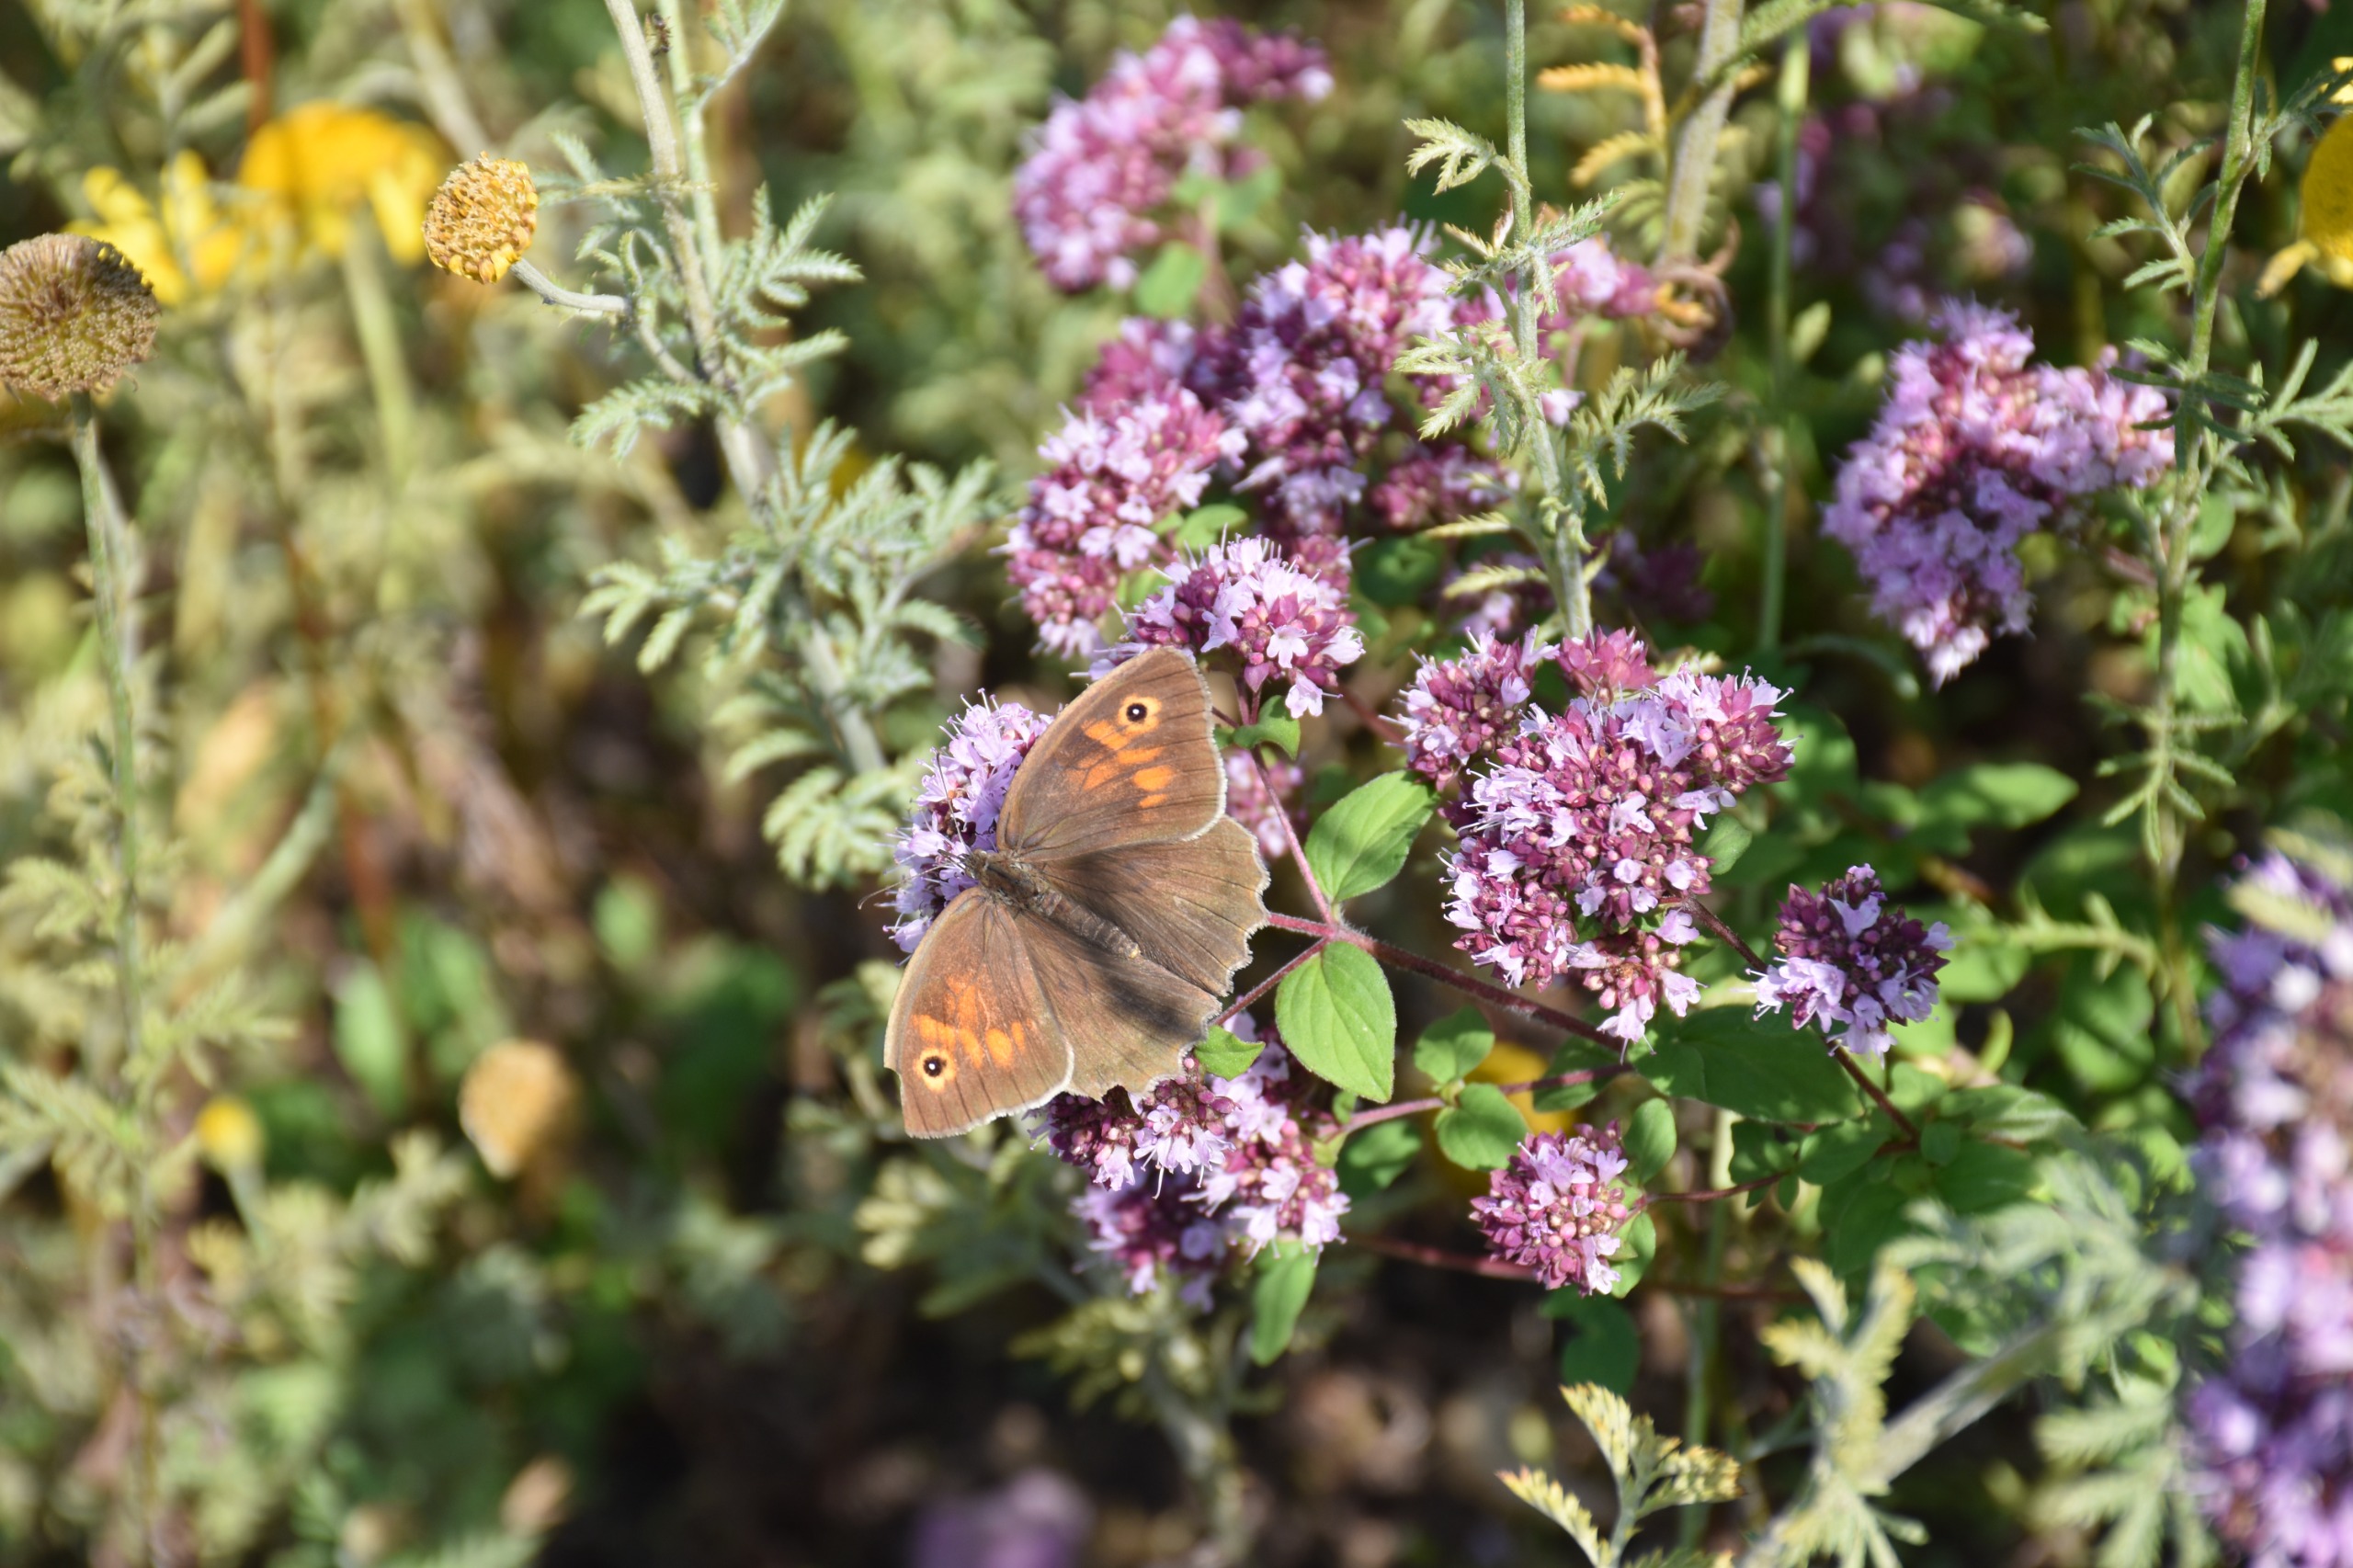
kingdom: Animalia
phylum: Arthropoda
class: Insecta
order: Lepidoptera
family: Nymphalidae
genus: Maniola
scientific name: Maniola jurtina
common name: Græsrandøje
